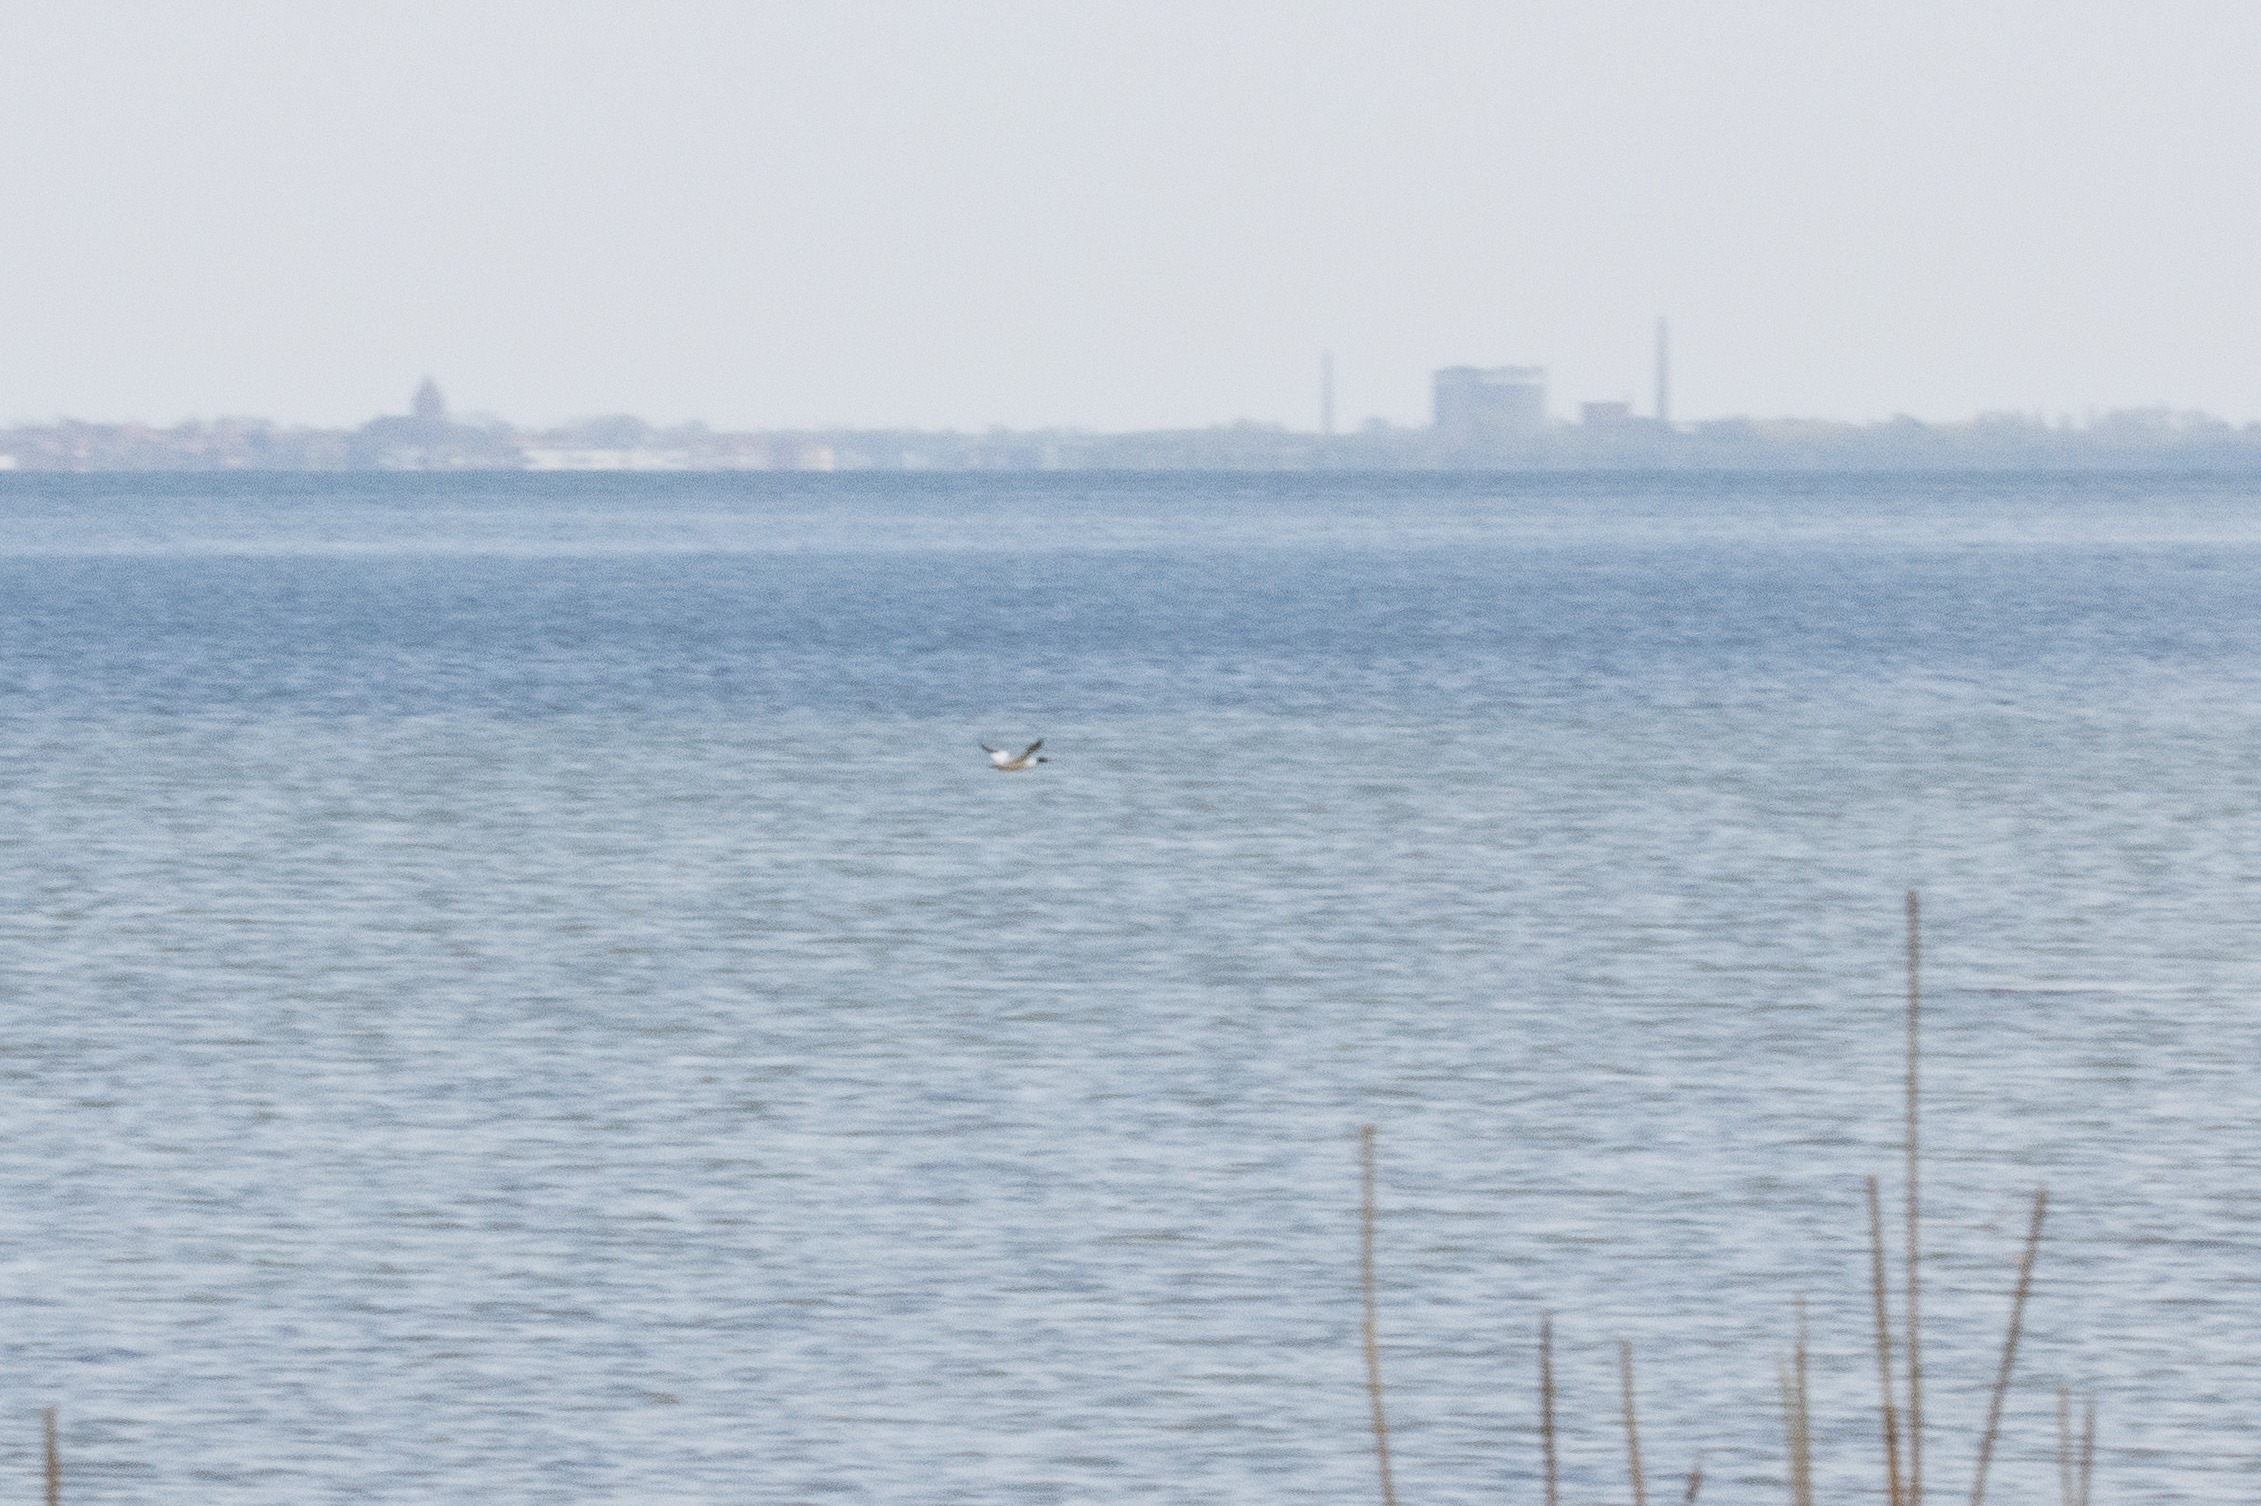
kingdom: Animalia
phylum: Chordata
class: Aves
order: Anseriformes
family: Anatidae
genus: Mergus
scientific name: Mergus merganser
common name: Stor skallesluger
